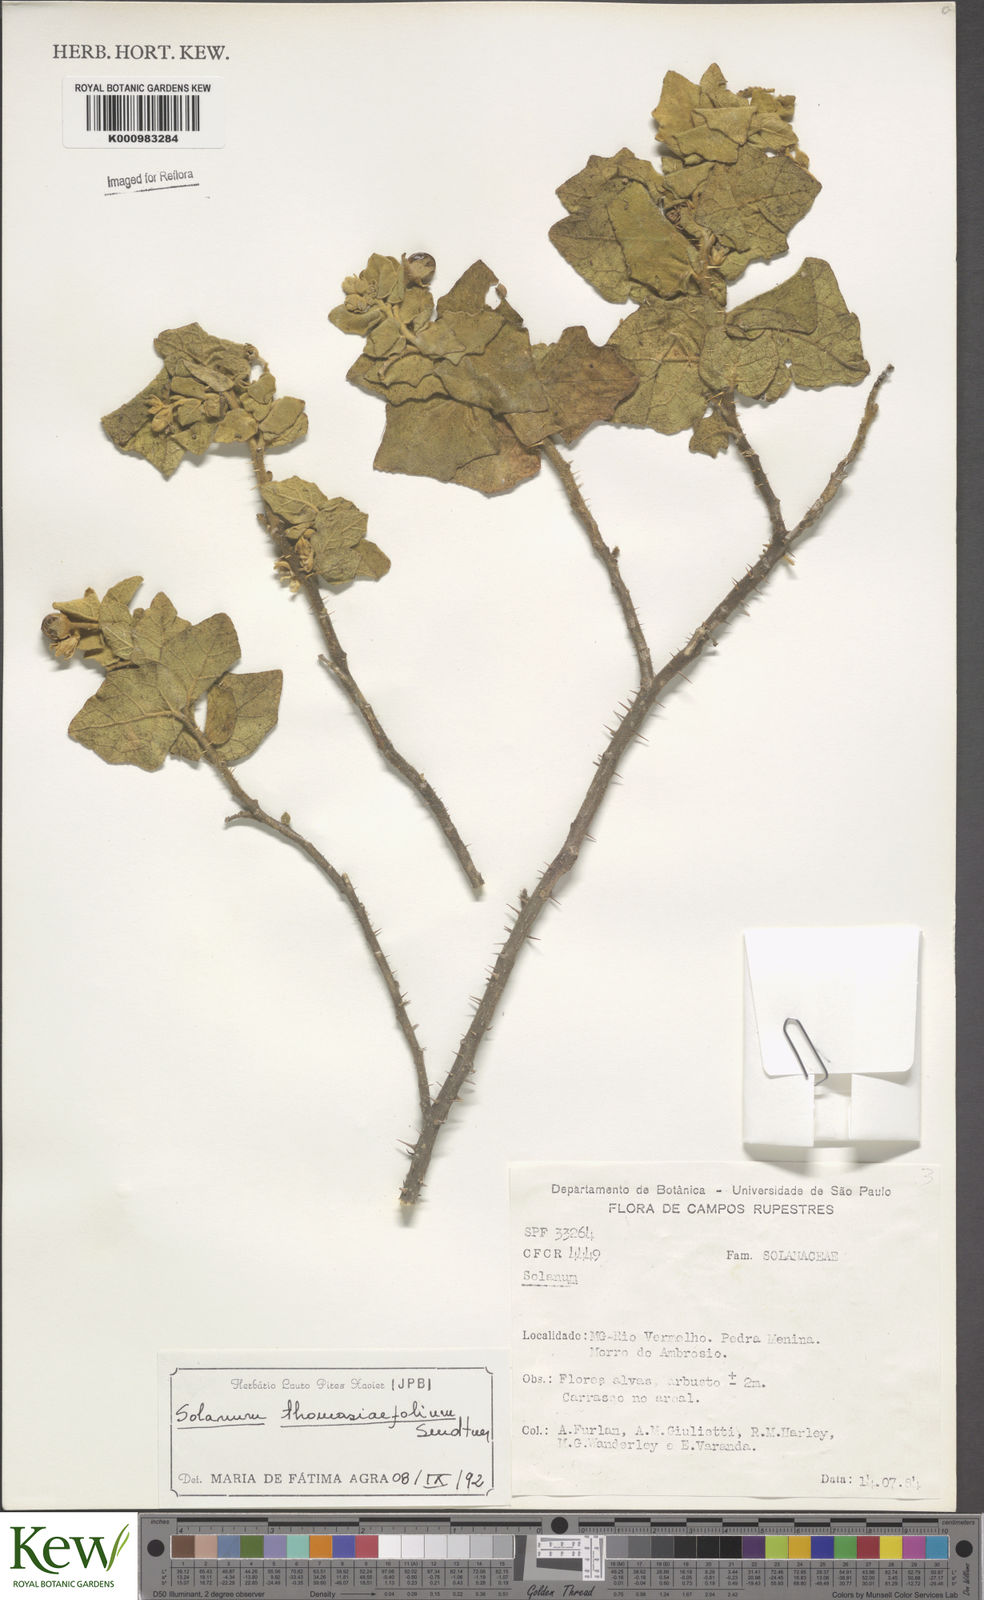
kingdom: Plantae
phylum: Tracheophyta
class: Magnoliopsida
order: Solanales
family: Solanaceae
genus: Solanum
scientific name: Solanum thomasiifolium
